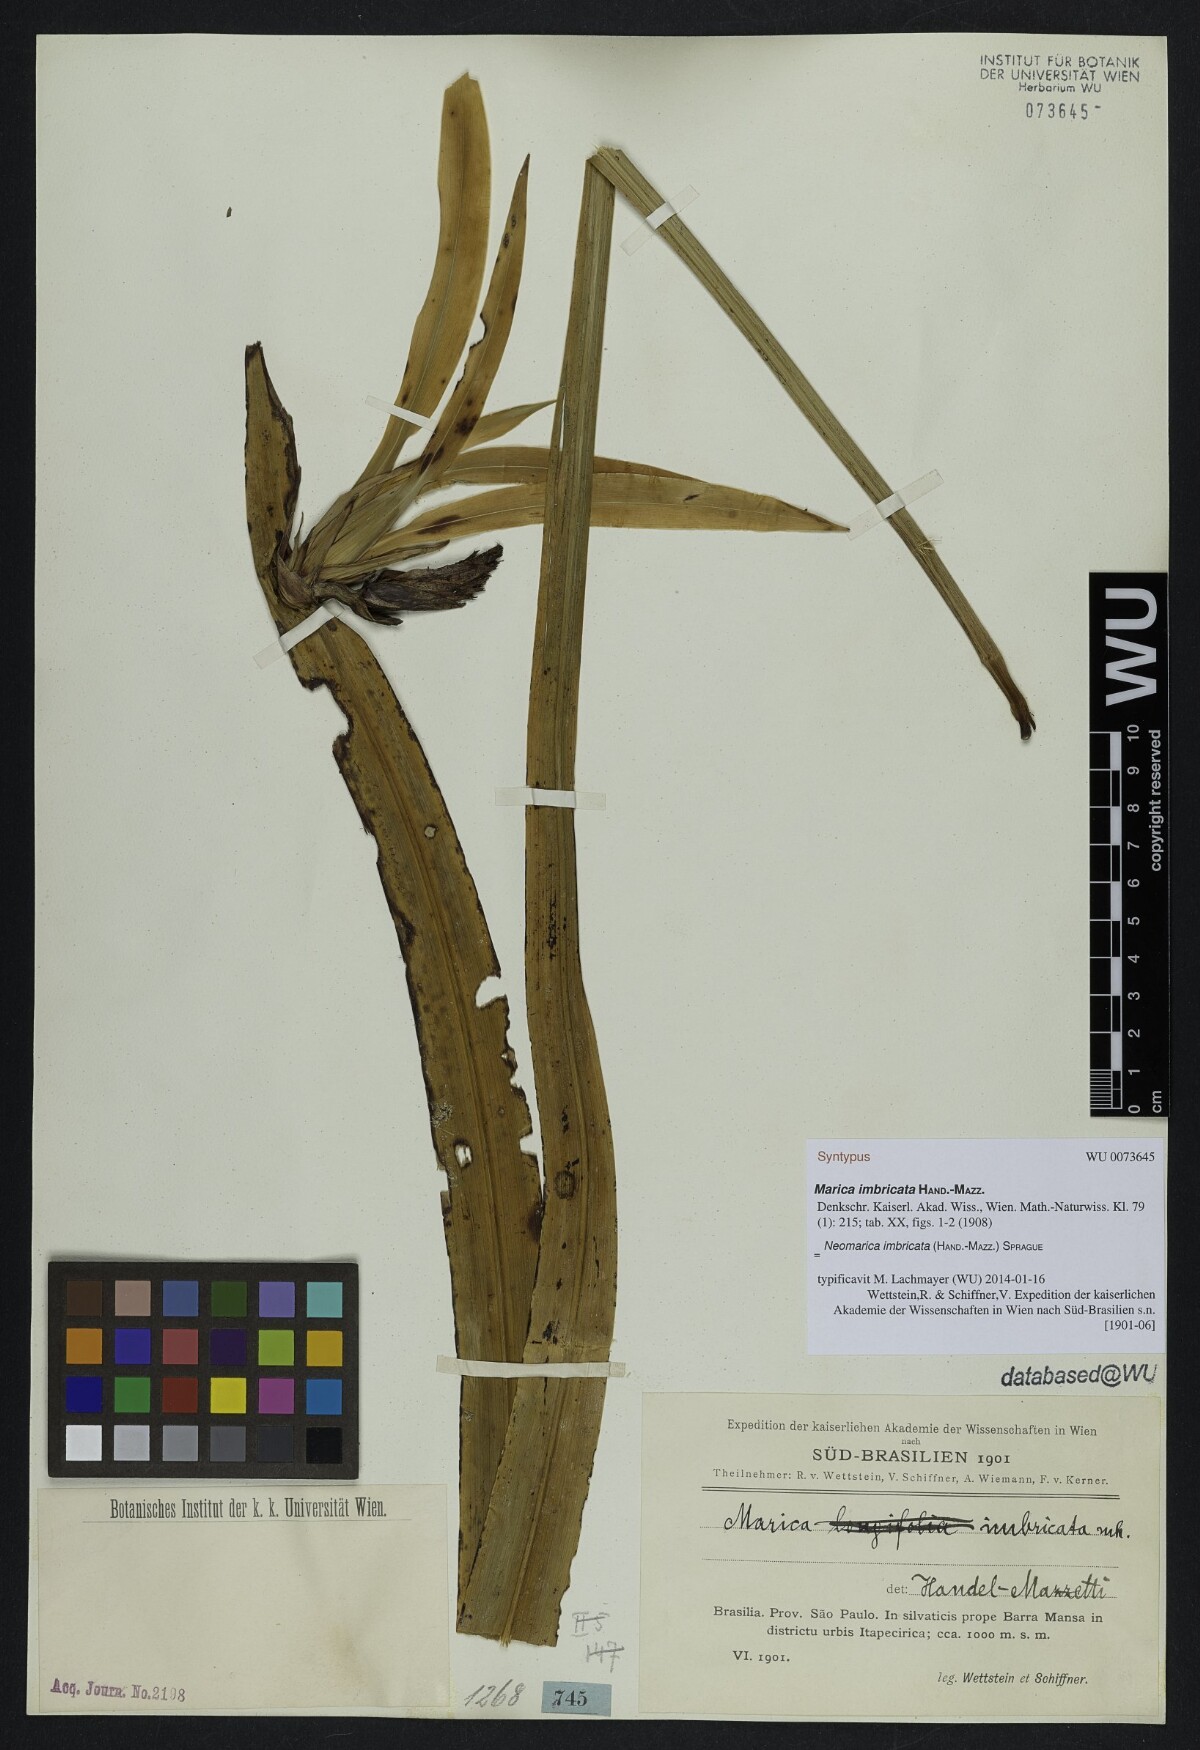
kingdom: Plantae
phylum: Tracheophyta
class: Liliopsida
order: Asparagales
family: Iridaceae
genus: Trimezia
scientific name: Trimezia imbricata
